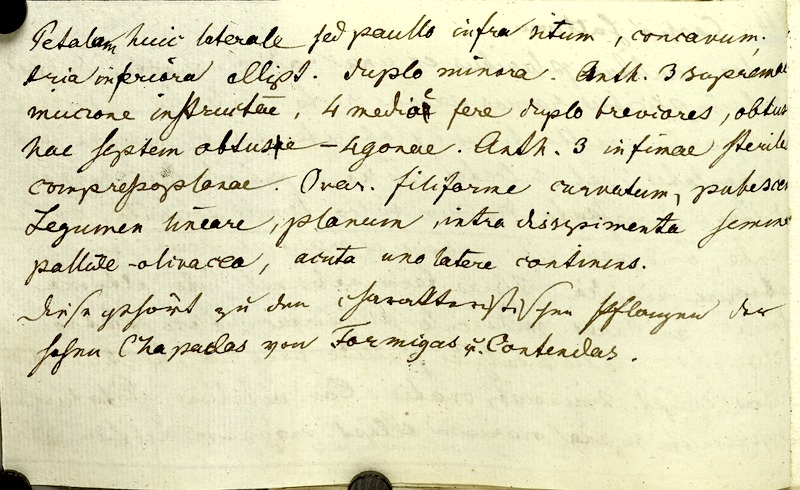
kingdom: Plantae
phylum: Tracheophyta
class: Magnoliopsida
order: Fabales
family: Fabaceae
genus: Senna
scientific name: Senna rostrata
